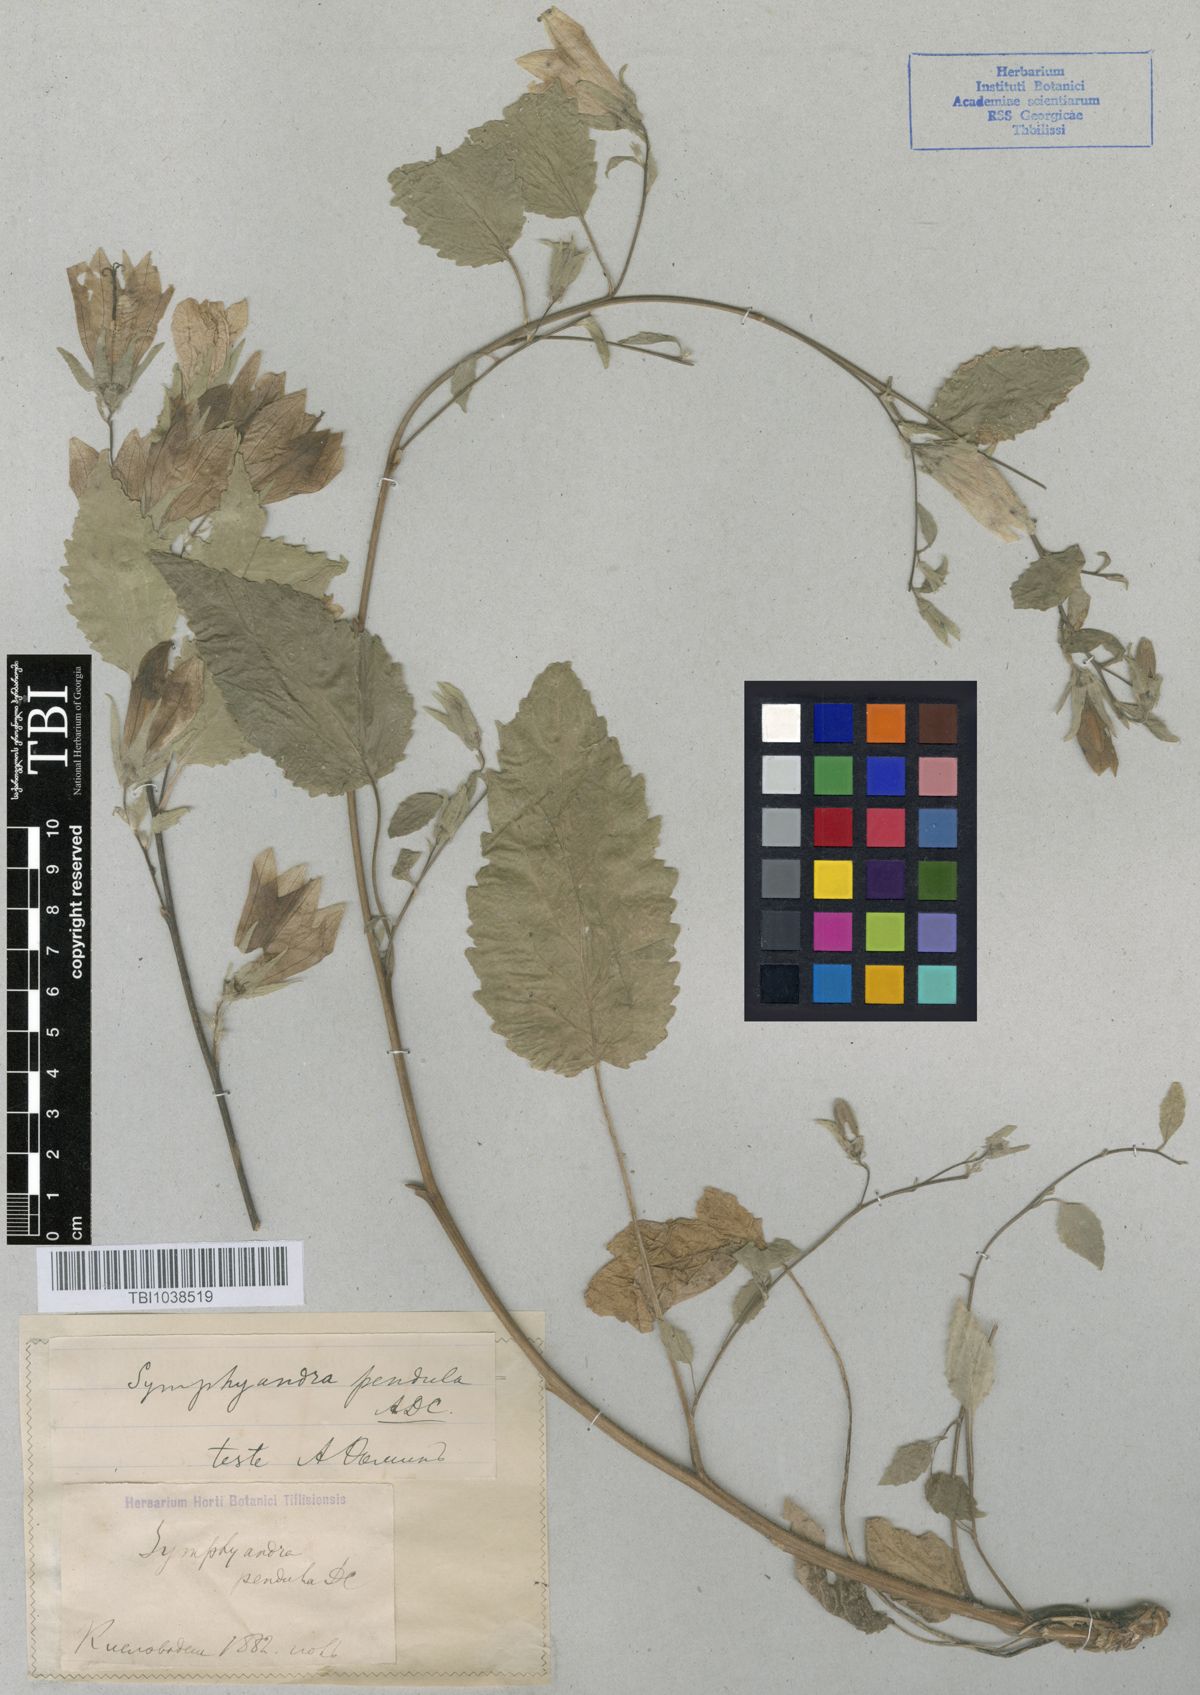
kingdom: Plantae
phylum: Tracheophyta
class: Magnoliopsida
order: Asterales
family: Campanulaceae
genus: Campanula
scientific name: Campanula pendula
